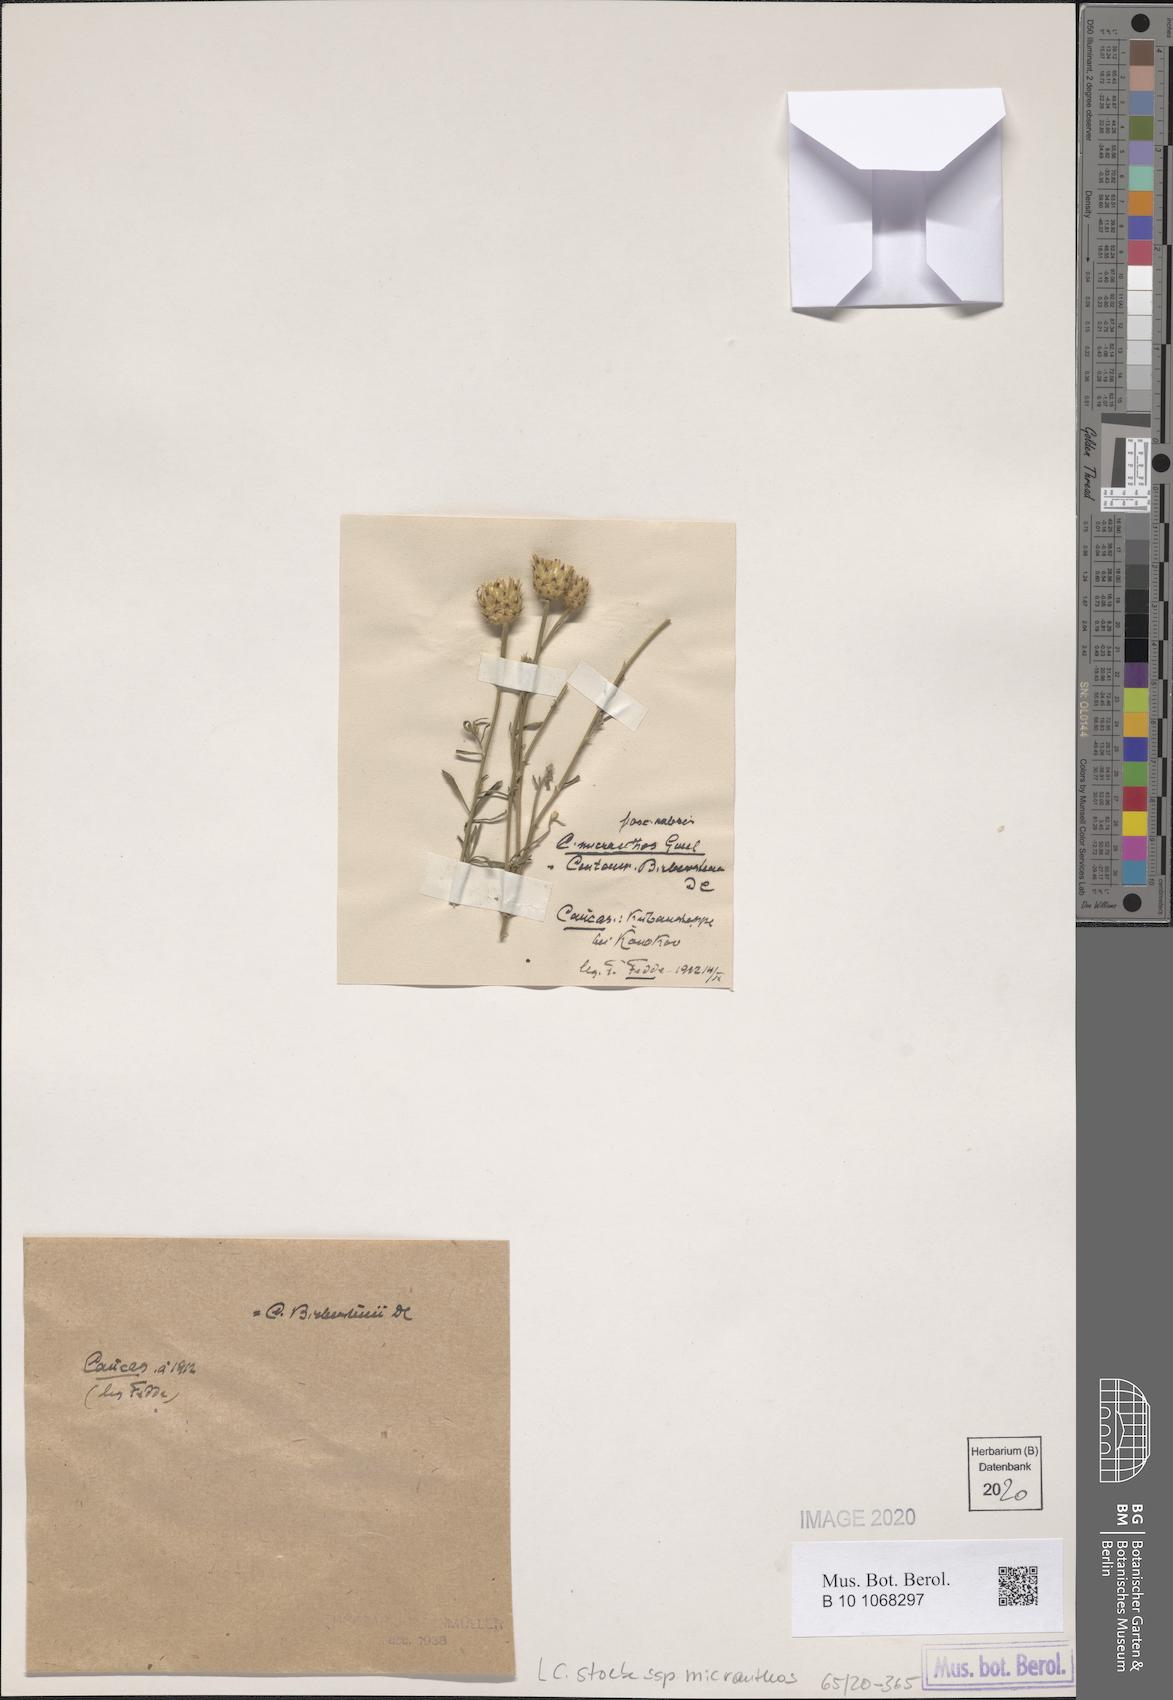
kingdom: Plantae
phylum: Tracheophyta
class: Magnoliopsida
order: Asterales
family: Asteraceae
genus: Centaurea
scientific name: Centaurea australis
